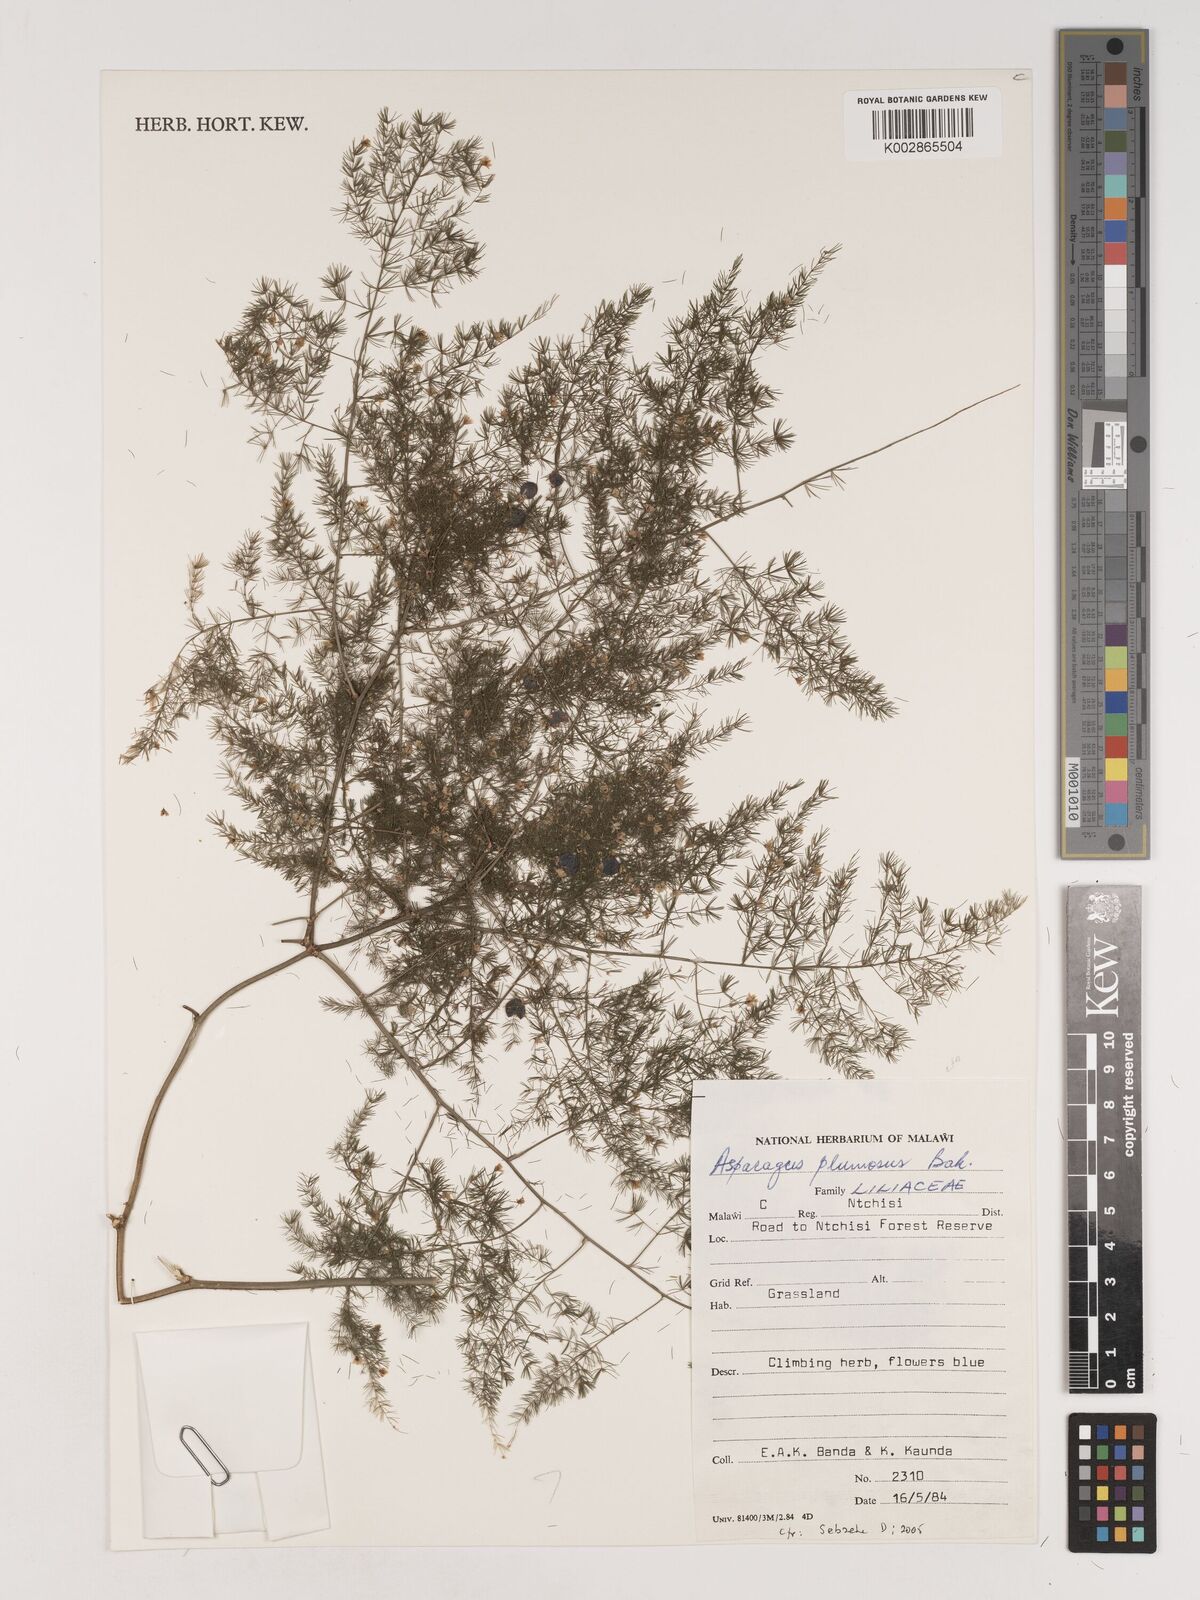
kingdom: Plantae
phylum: Tracheophyta
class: Liliopsida
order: Asparagales
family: Asparagaceae
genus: Asparagus
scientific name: Asparagus setaceus
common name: Common asparagus fern
